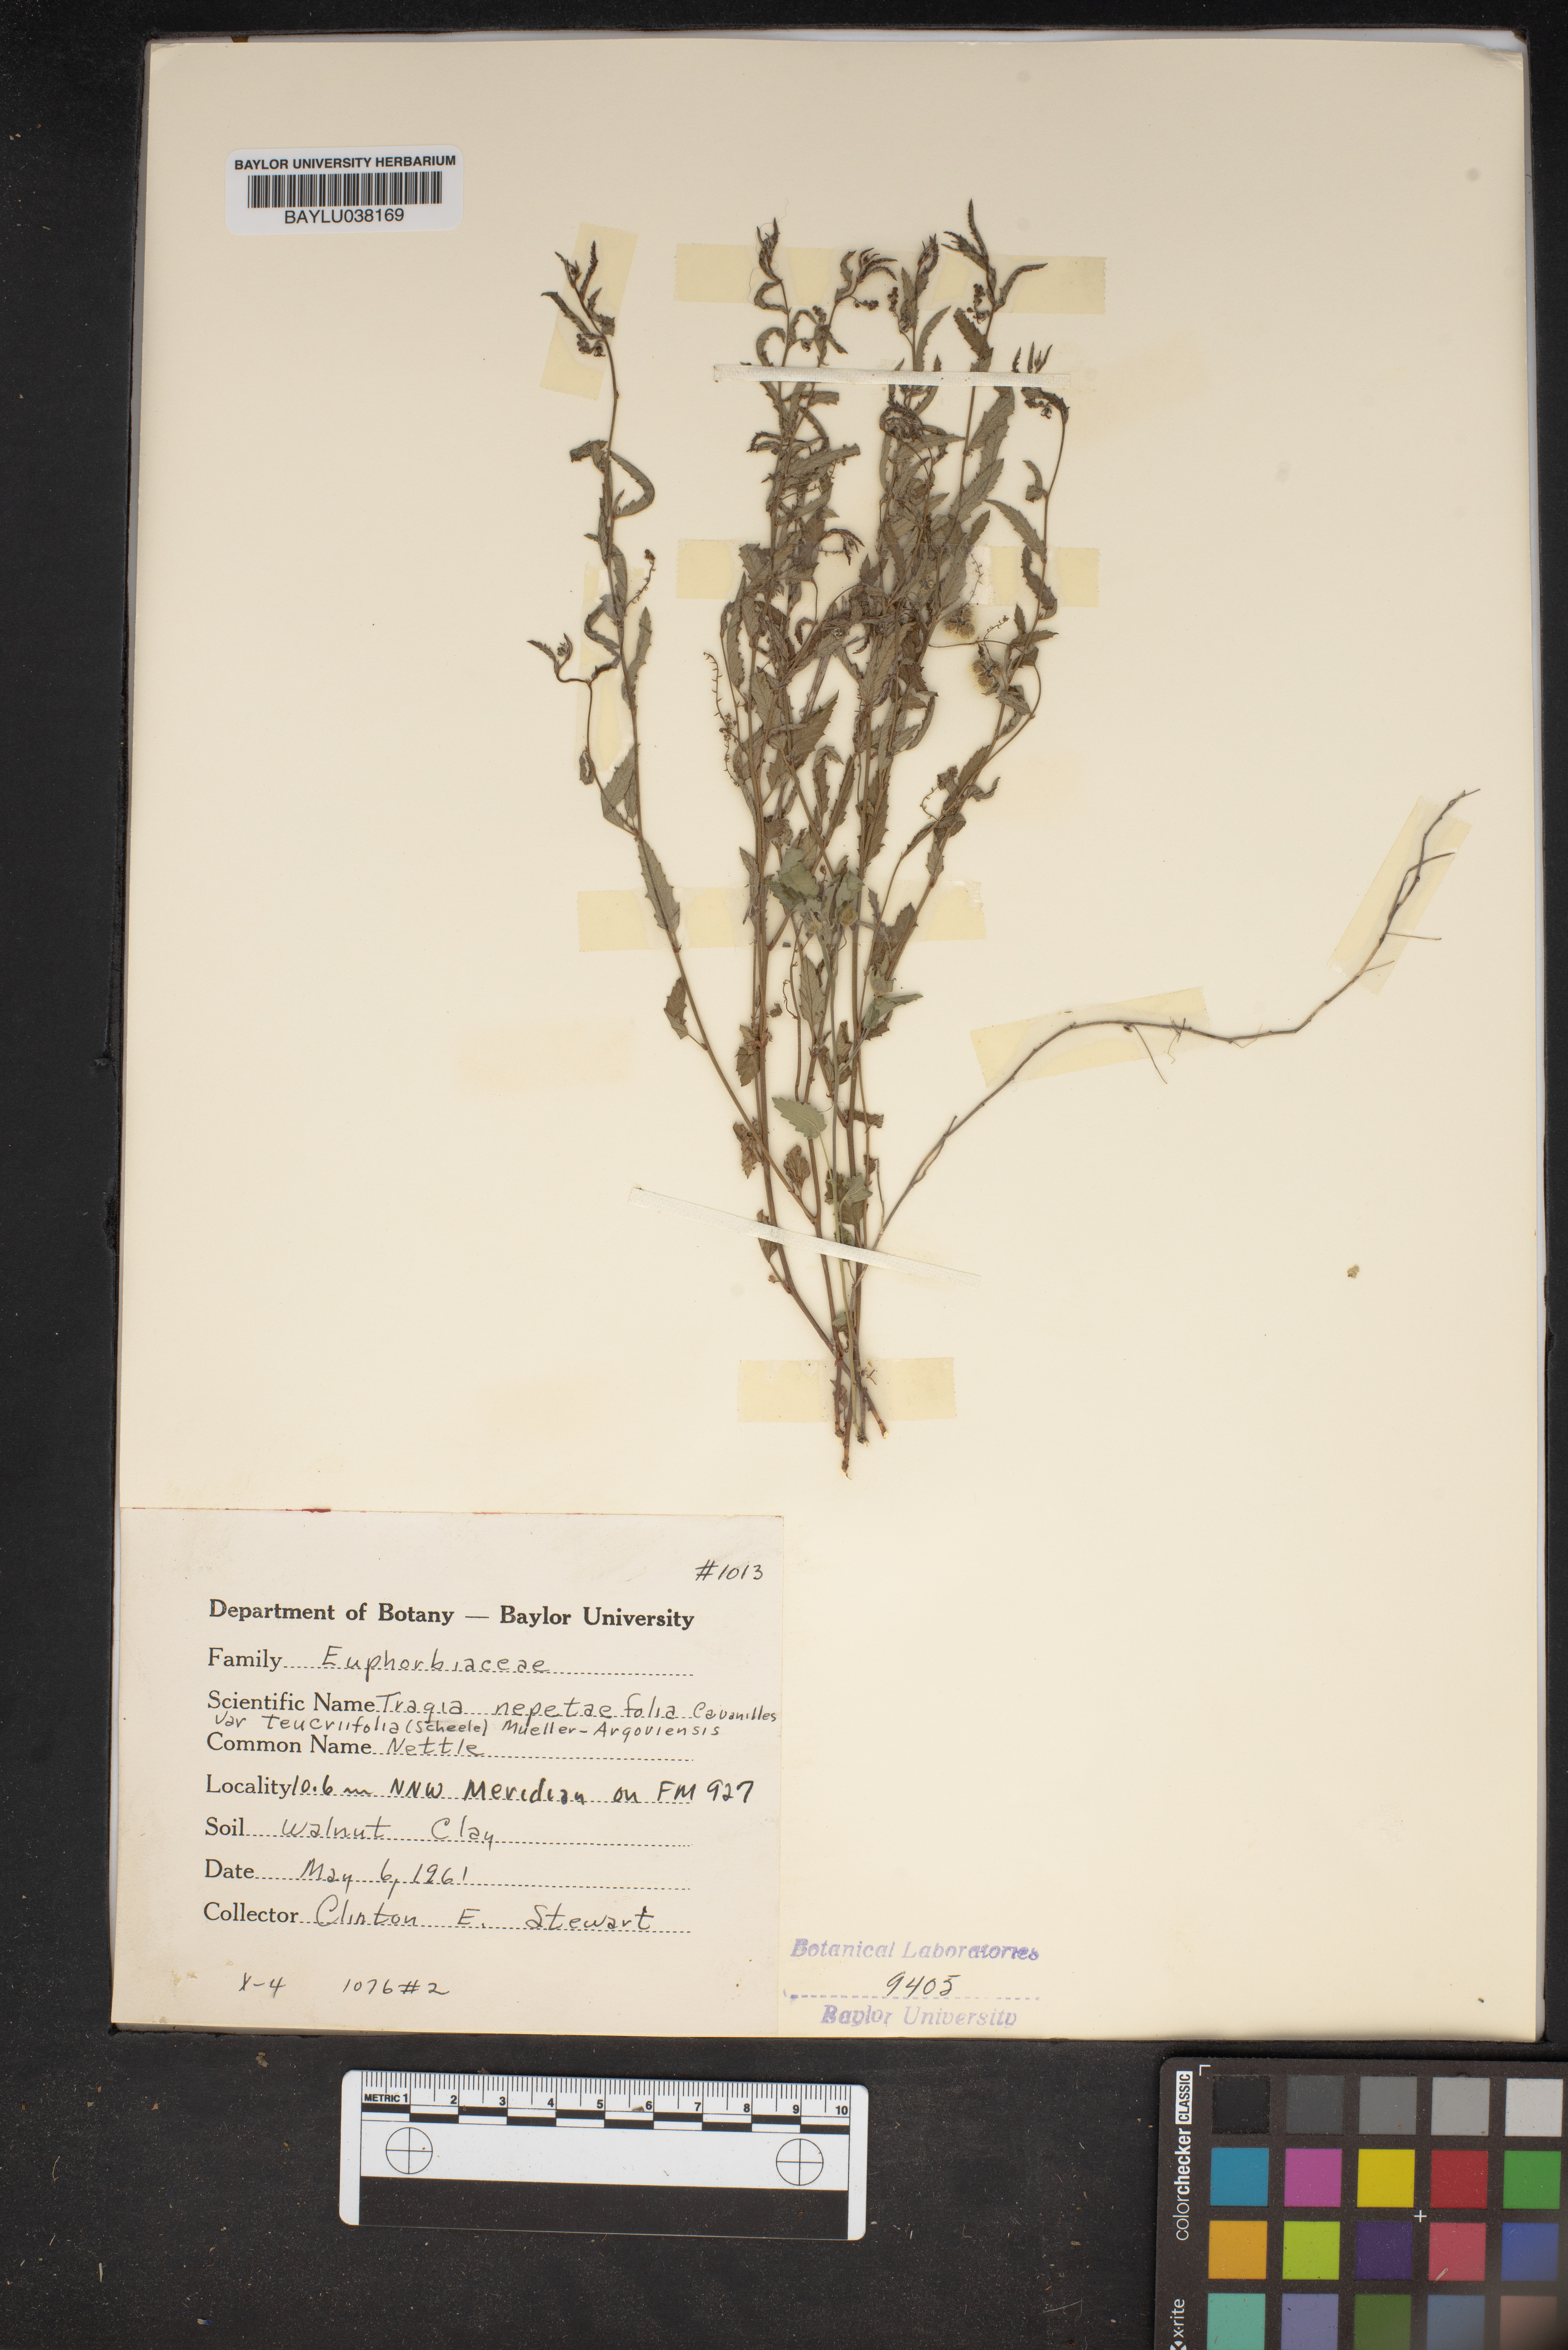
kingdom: Plantae
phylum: Tracheophyta
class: Magnoliopsida
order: Malpighiales
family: Euphorbiaceae
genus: Tragia
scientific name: Tragia bahiensis
